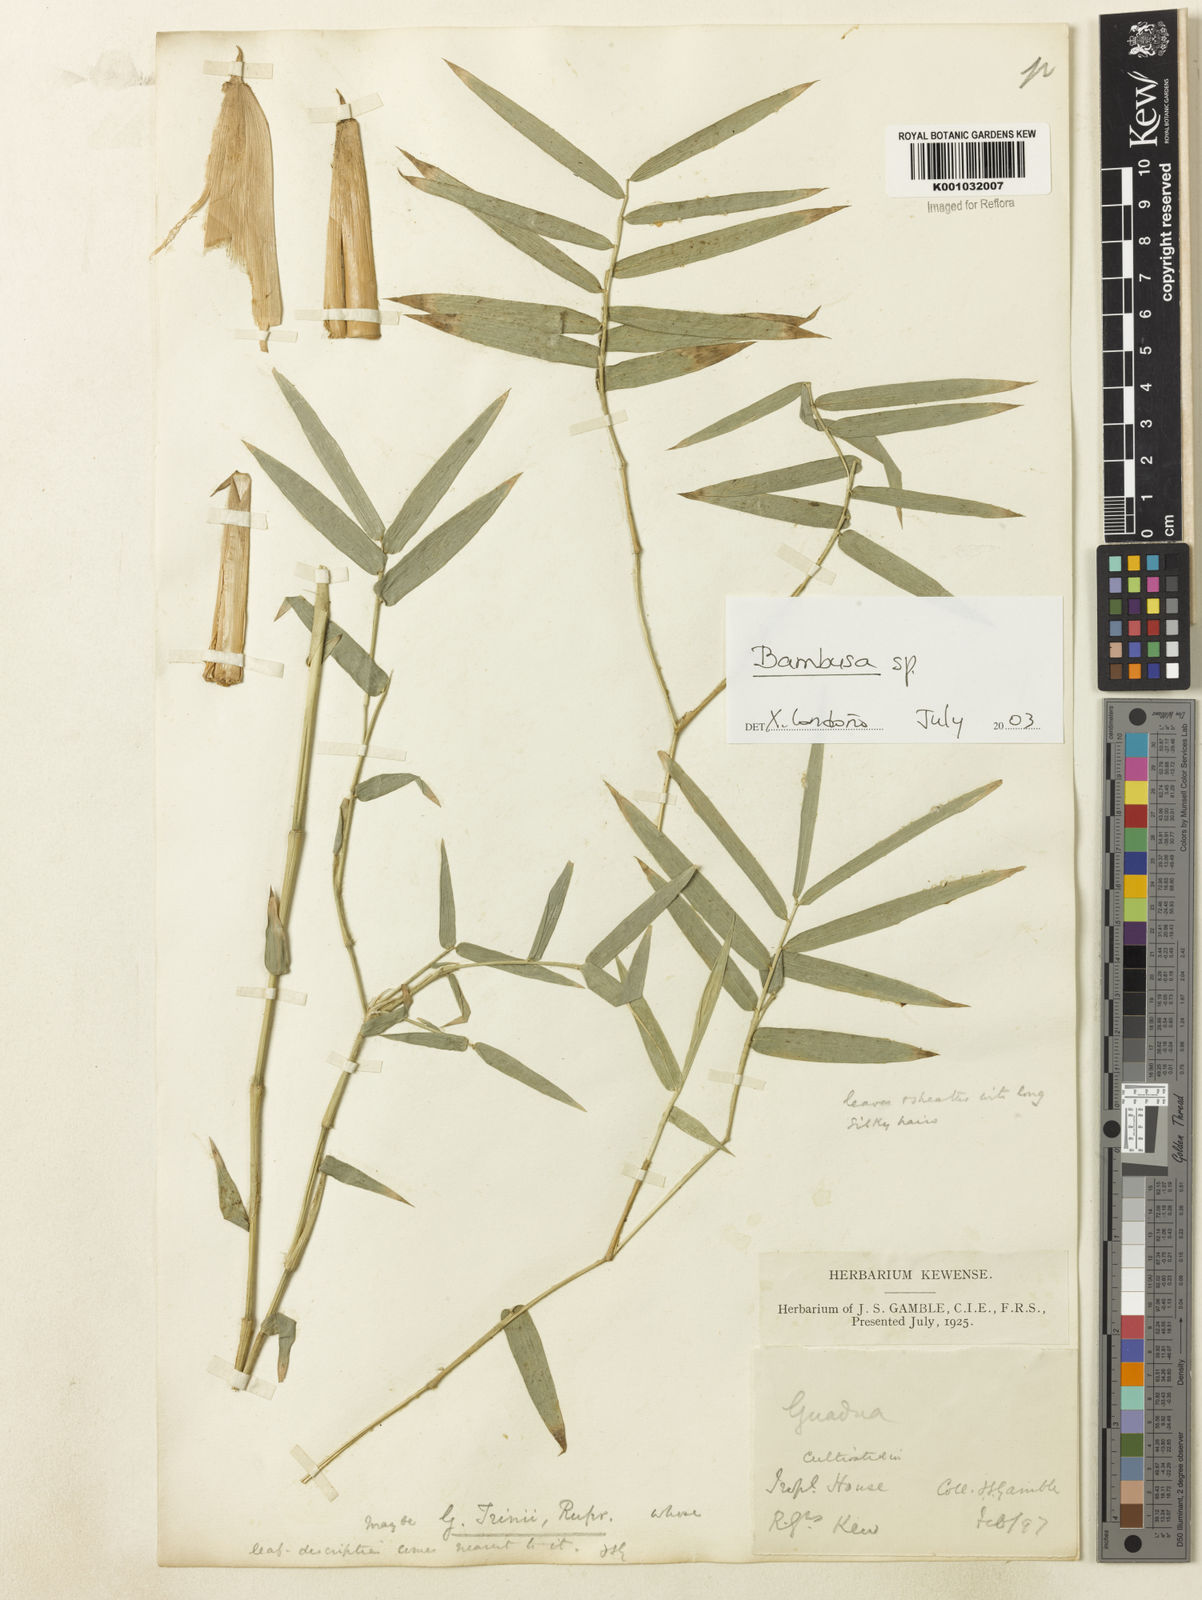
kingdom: Plantae
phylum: Tracheophyta
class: Liliopsida
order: Poales
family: Poaceae
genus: Bambusa
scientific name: Bambusa
